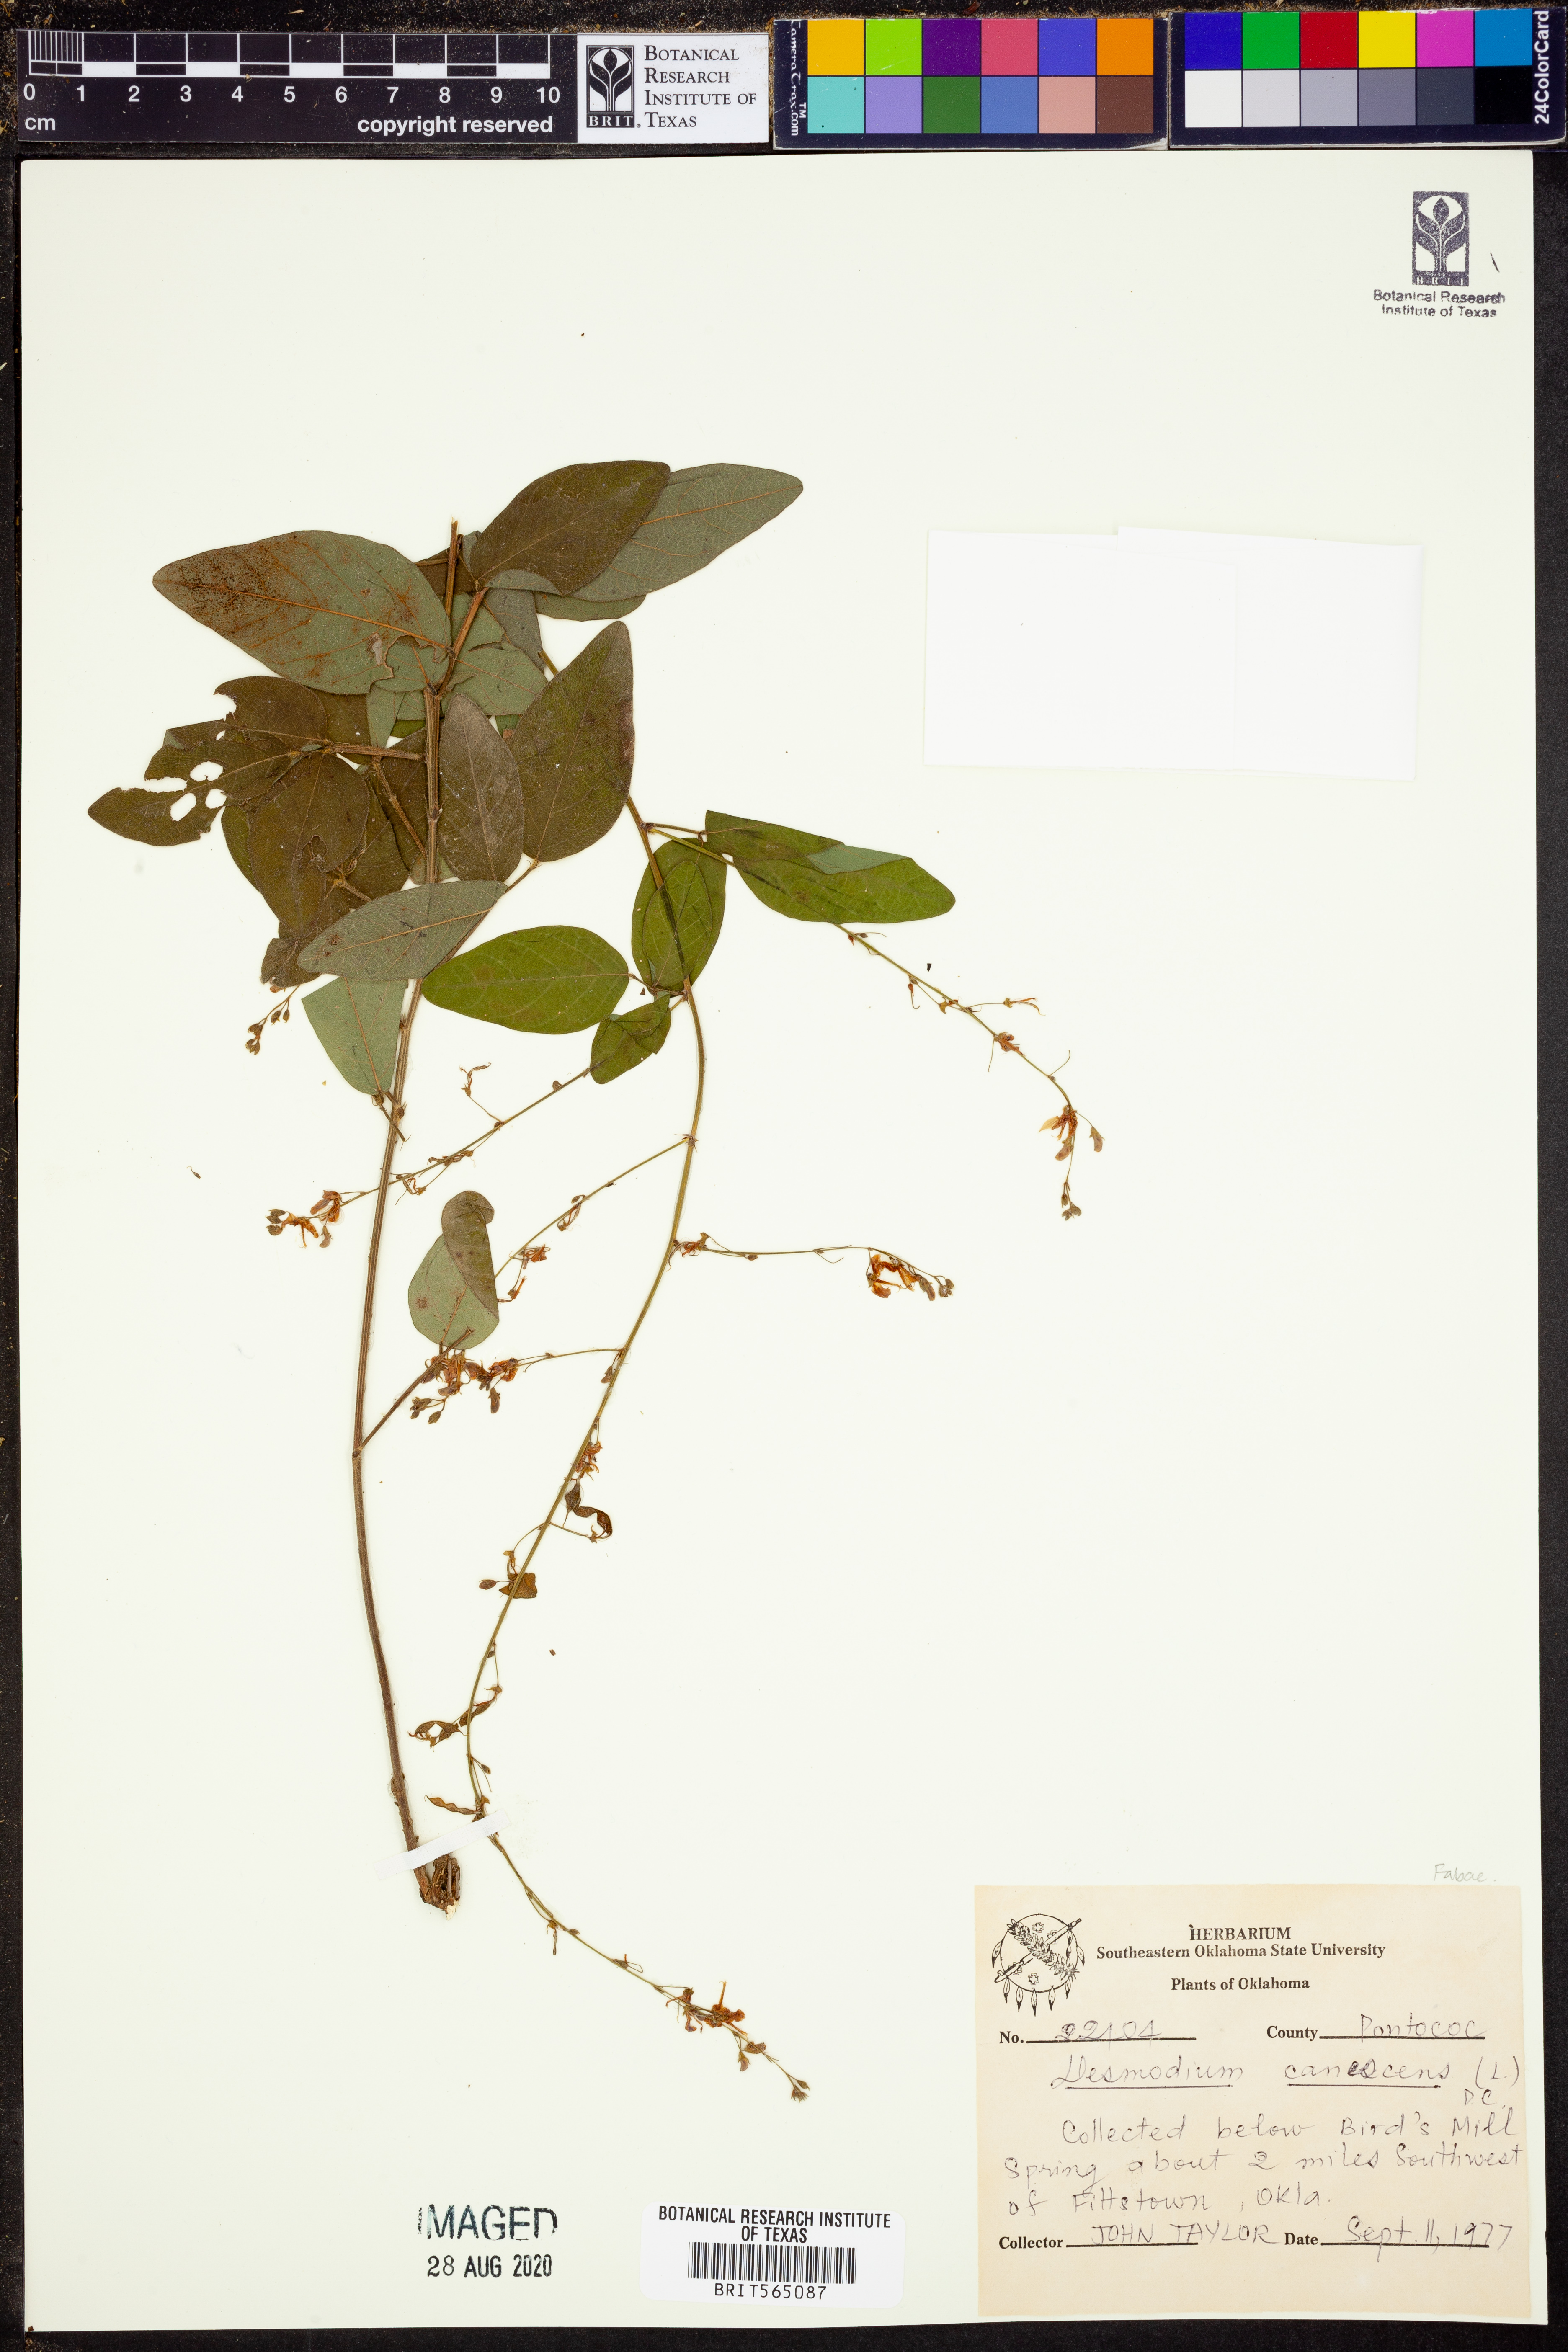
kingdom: Plantae
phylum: Tracheophyta
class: Magnoliopsida
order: Fabales
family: Fabaceae
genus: Desmodium
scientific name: Desmodium canescens
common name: Hoary tick-clover
